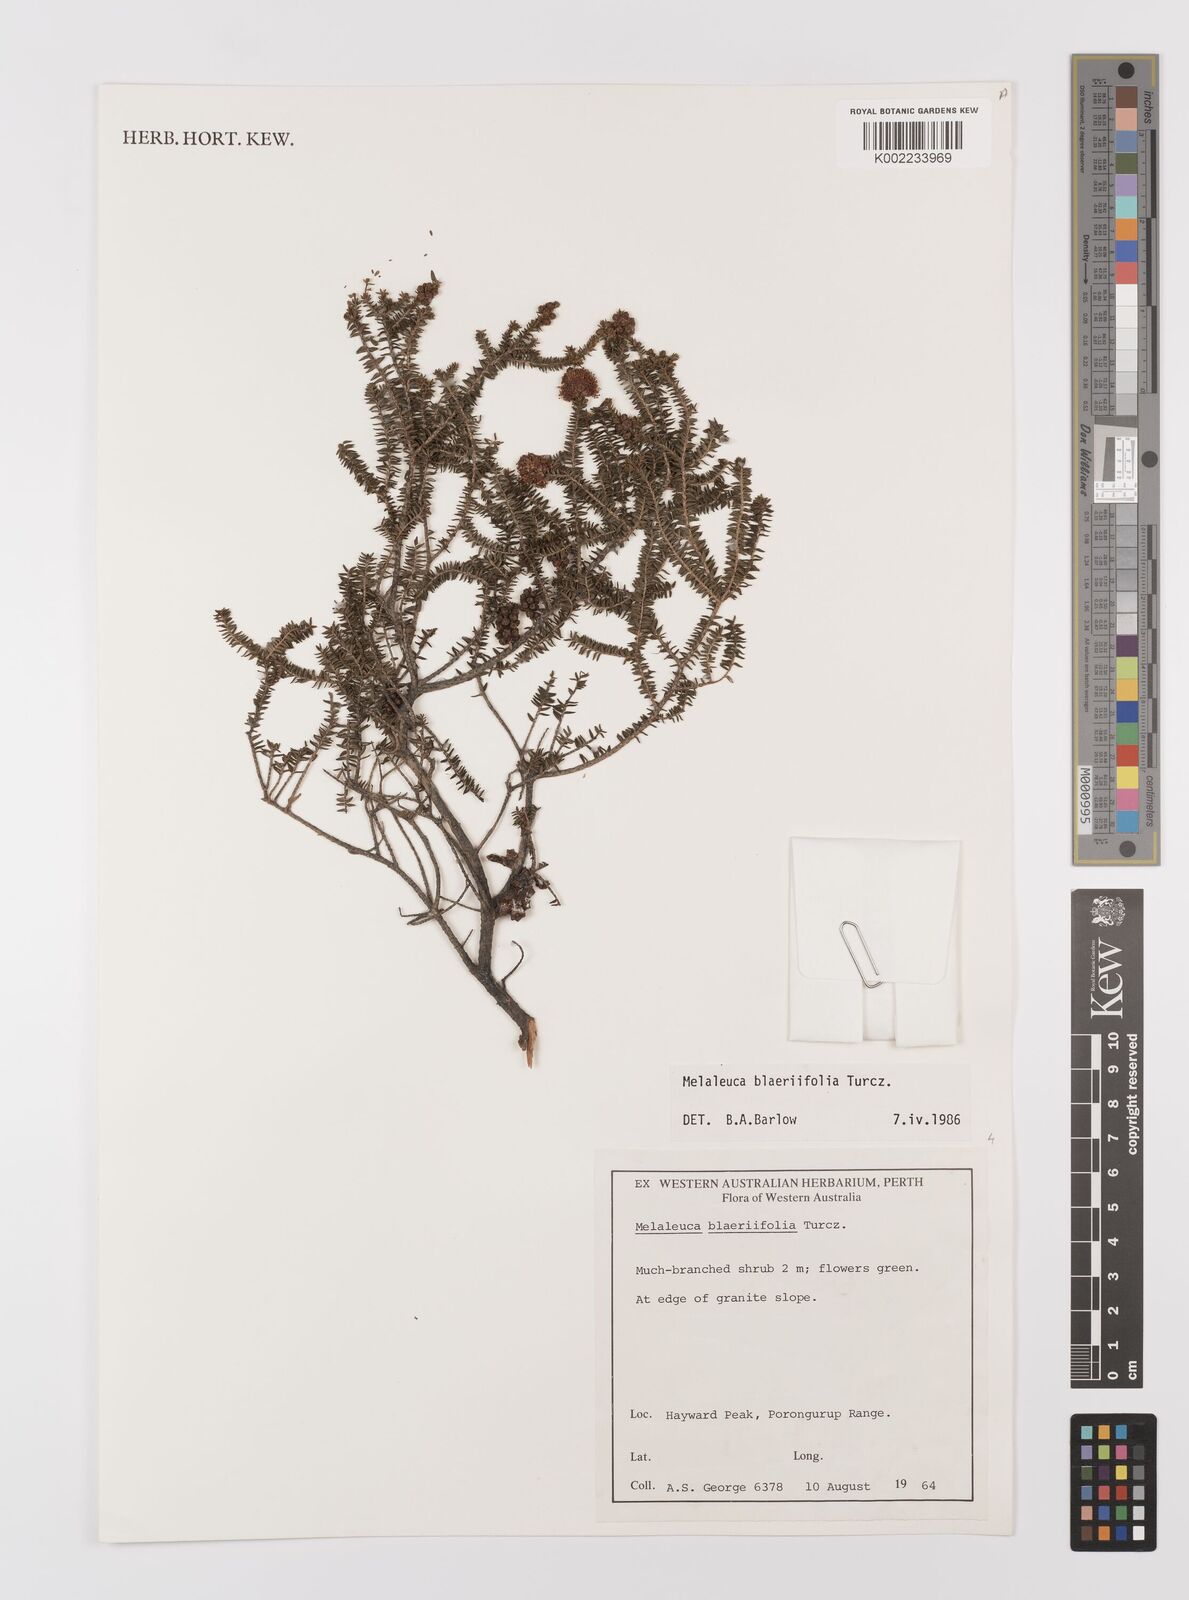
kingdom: Plantae
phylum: Tracheophyta
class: Magnoliopsida
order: Myrtales
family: Myrtaceae
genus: Melaleuca
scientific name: Melaleuca blaeriifolia
